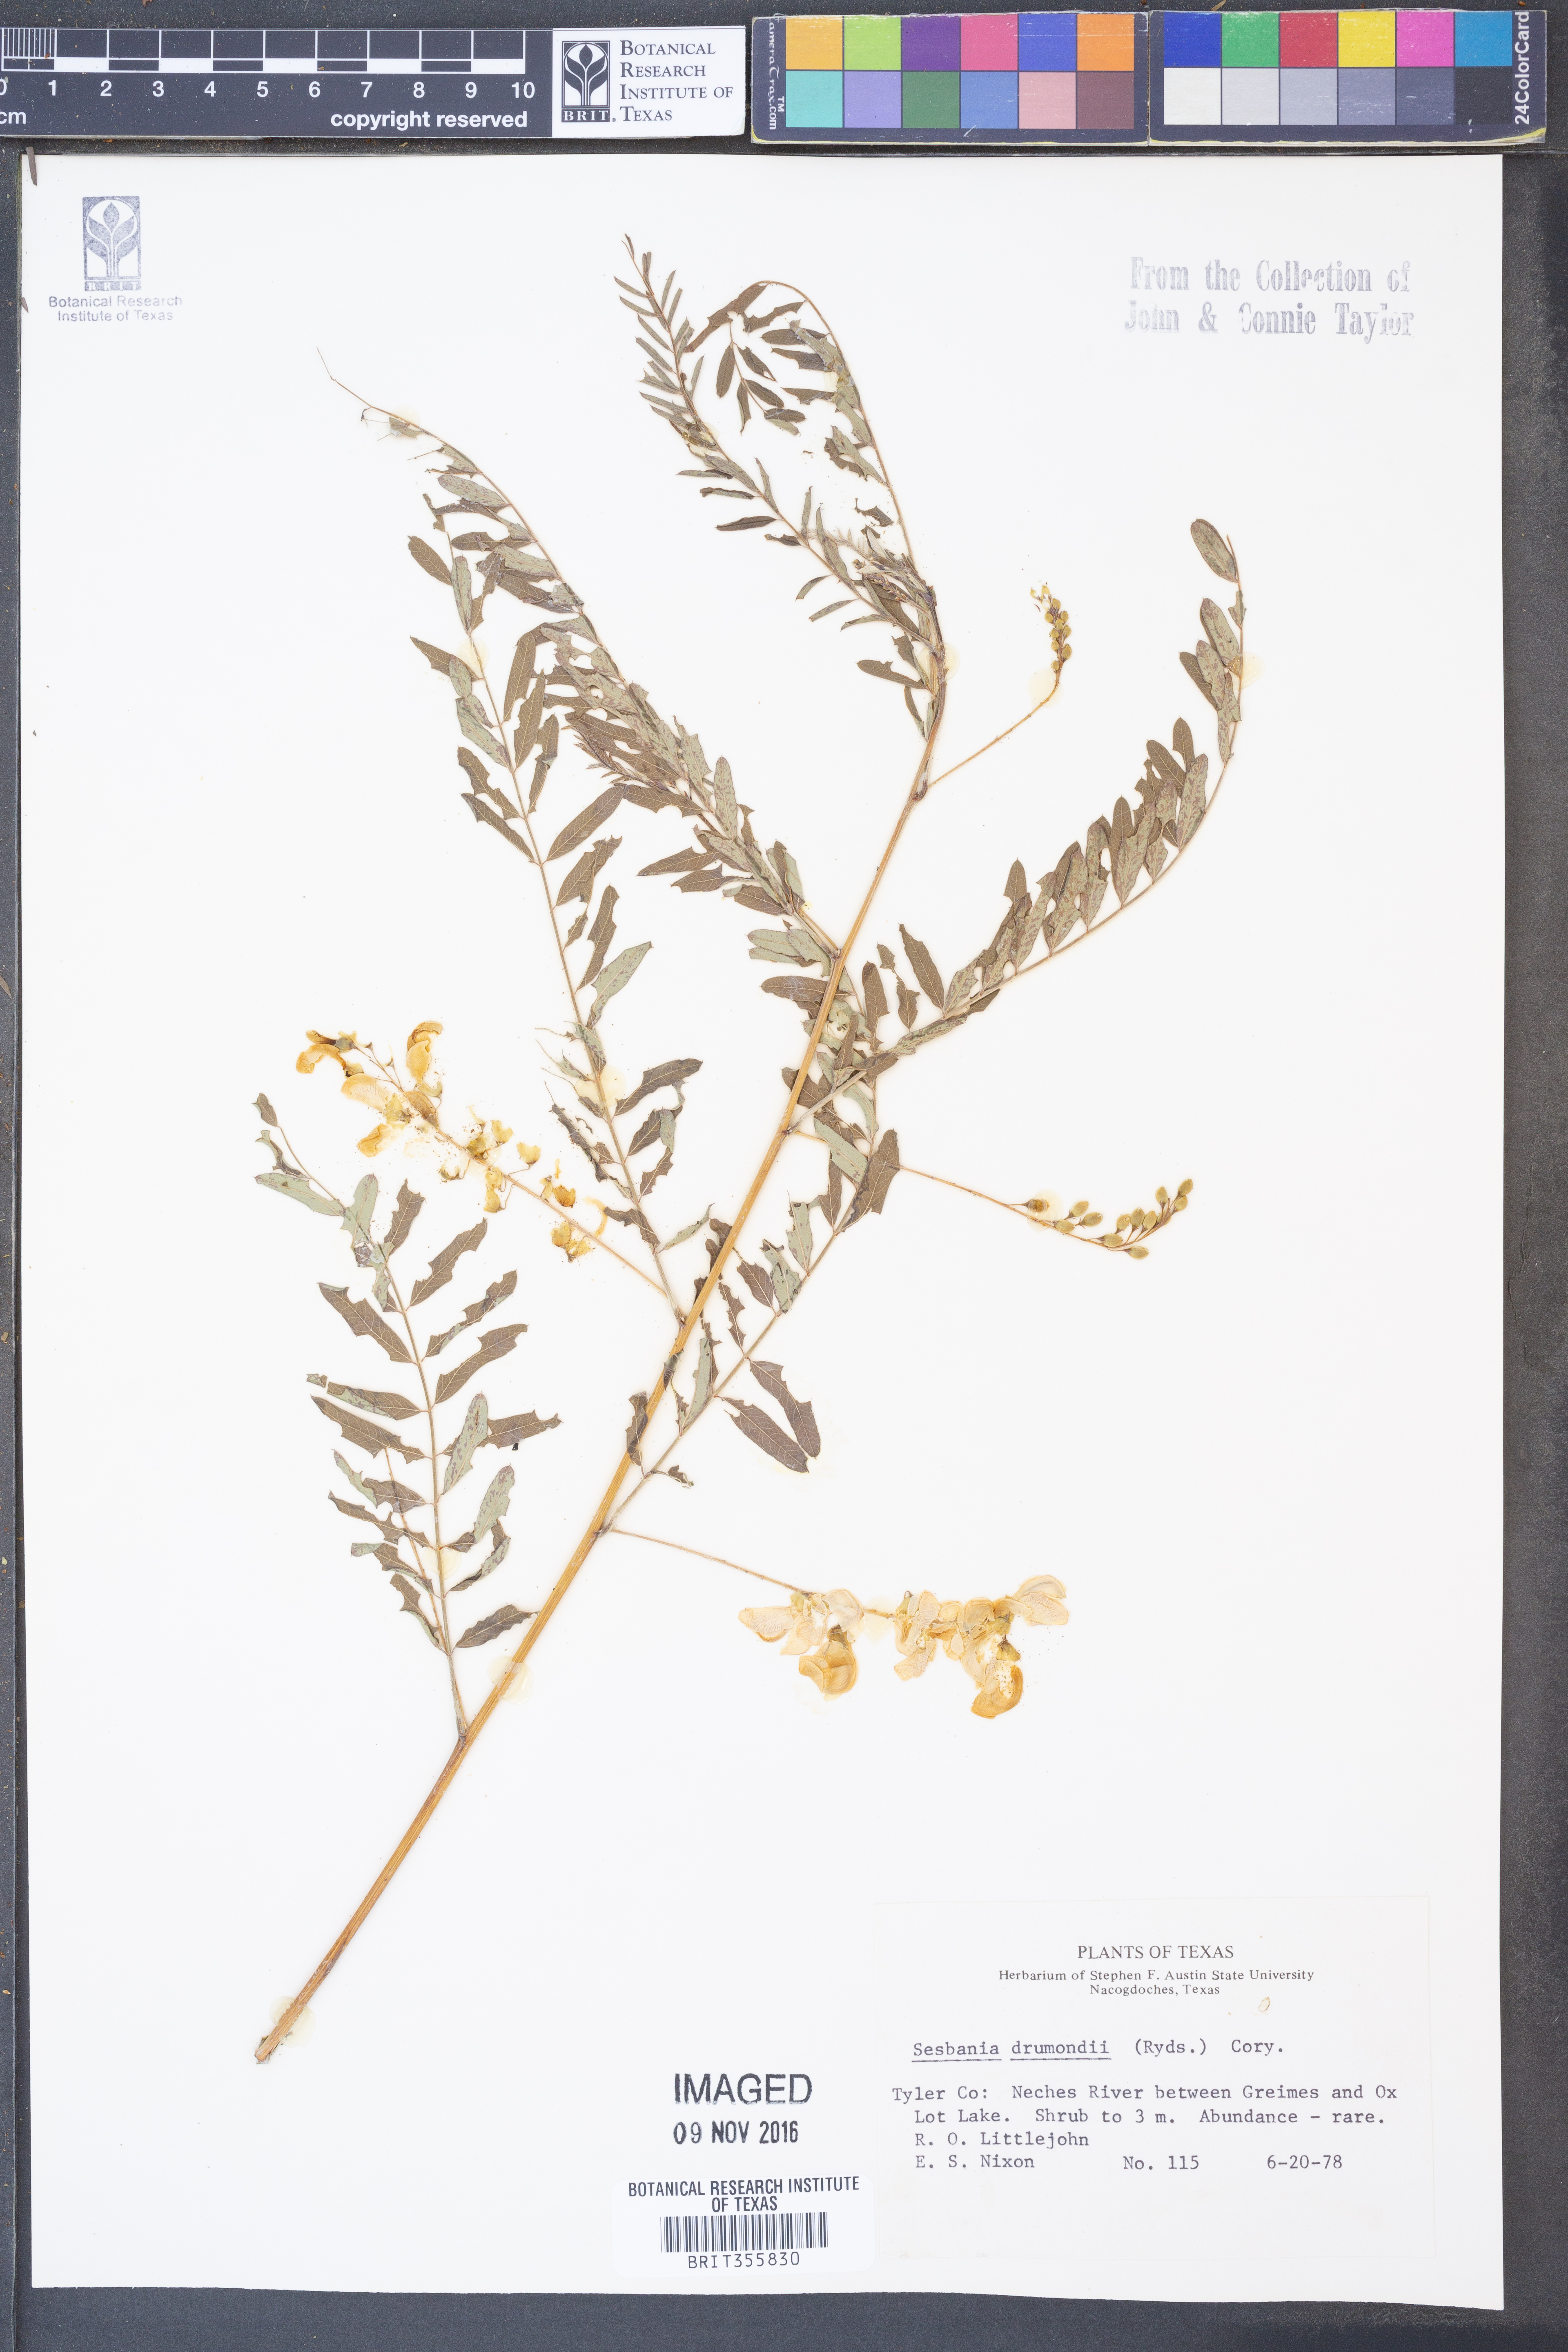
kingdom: Plantae
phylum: Tracheophyta
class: Magnoliopsida
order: Fabales
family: Fabaceae
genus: Sesbania
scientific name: Sesbania drummondii
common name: Poison-bean
